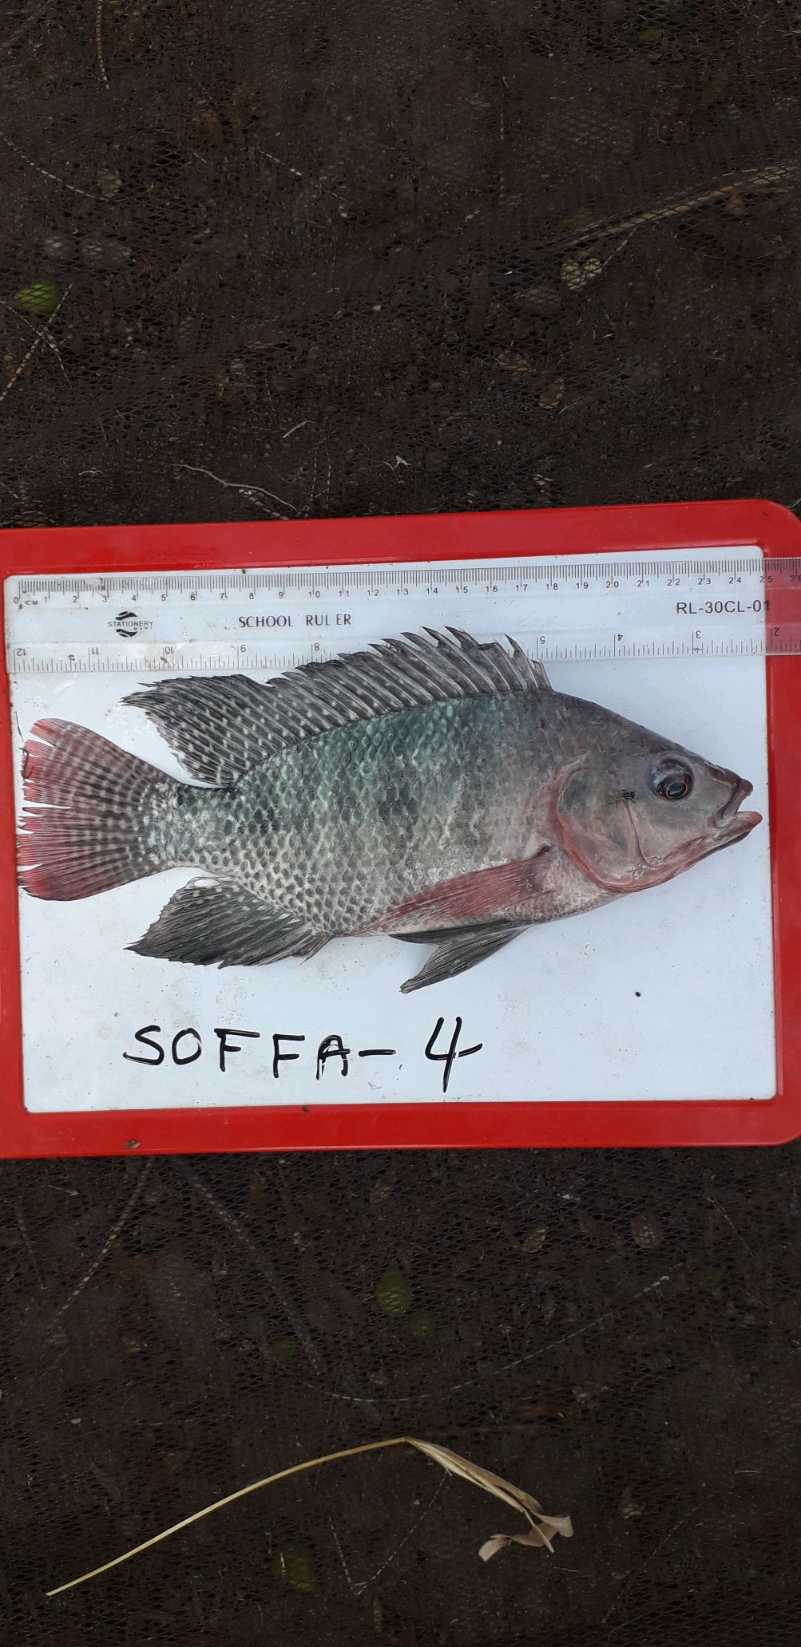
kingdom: Animalia
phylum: Chordata
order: Perciformes
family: Cichlidae
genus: Oreochromis
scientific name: Oreochromis niloticus
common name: Nile tilapia
